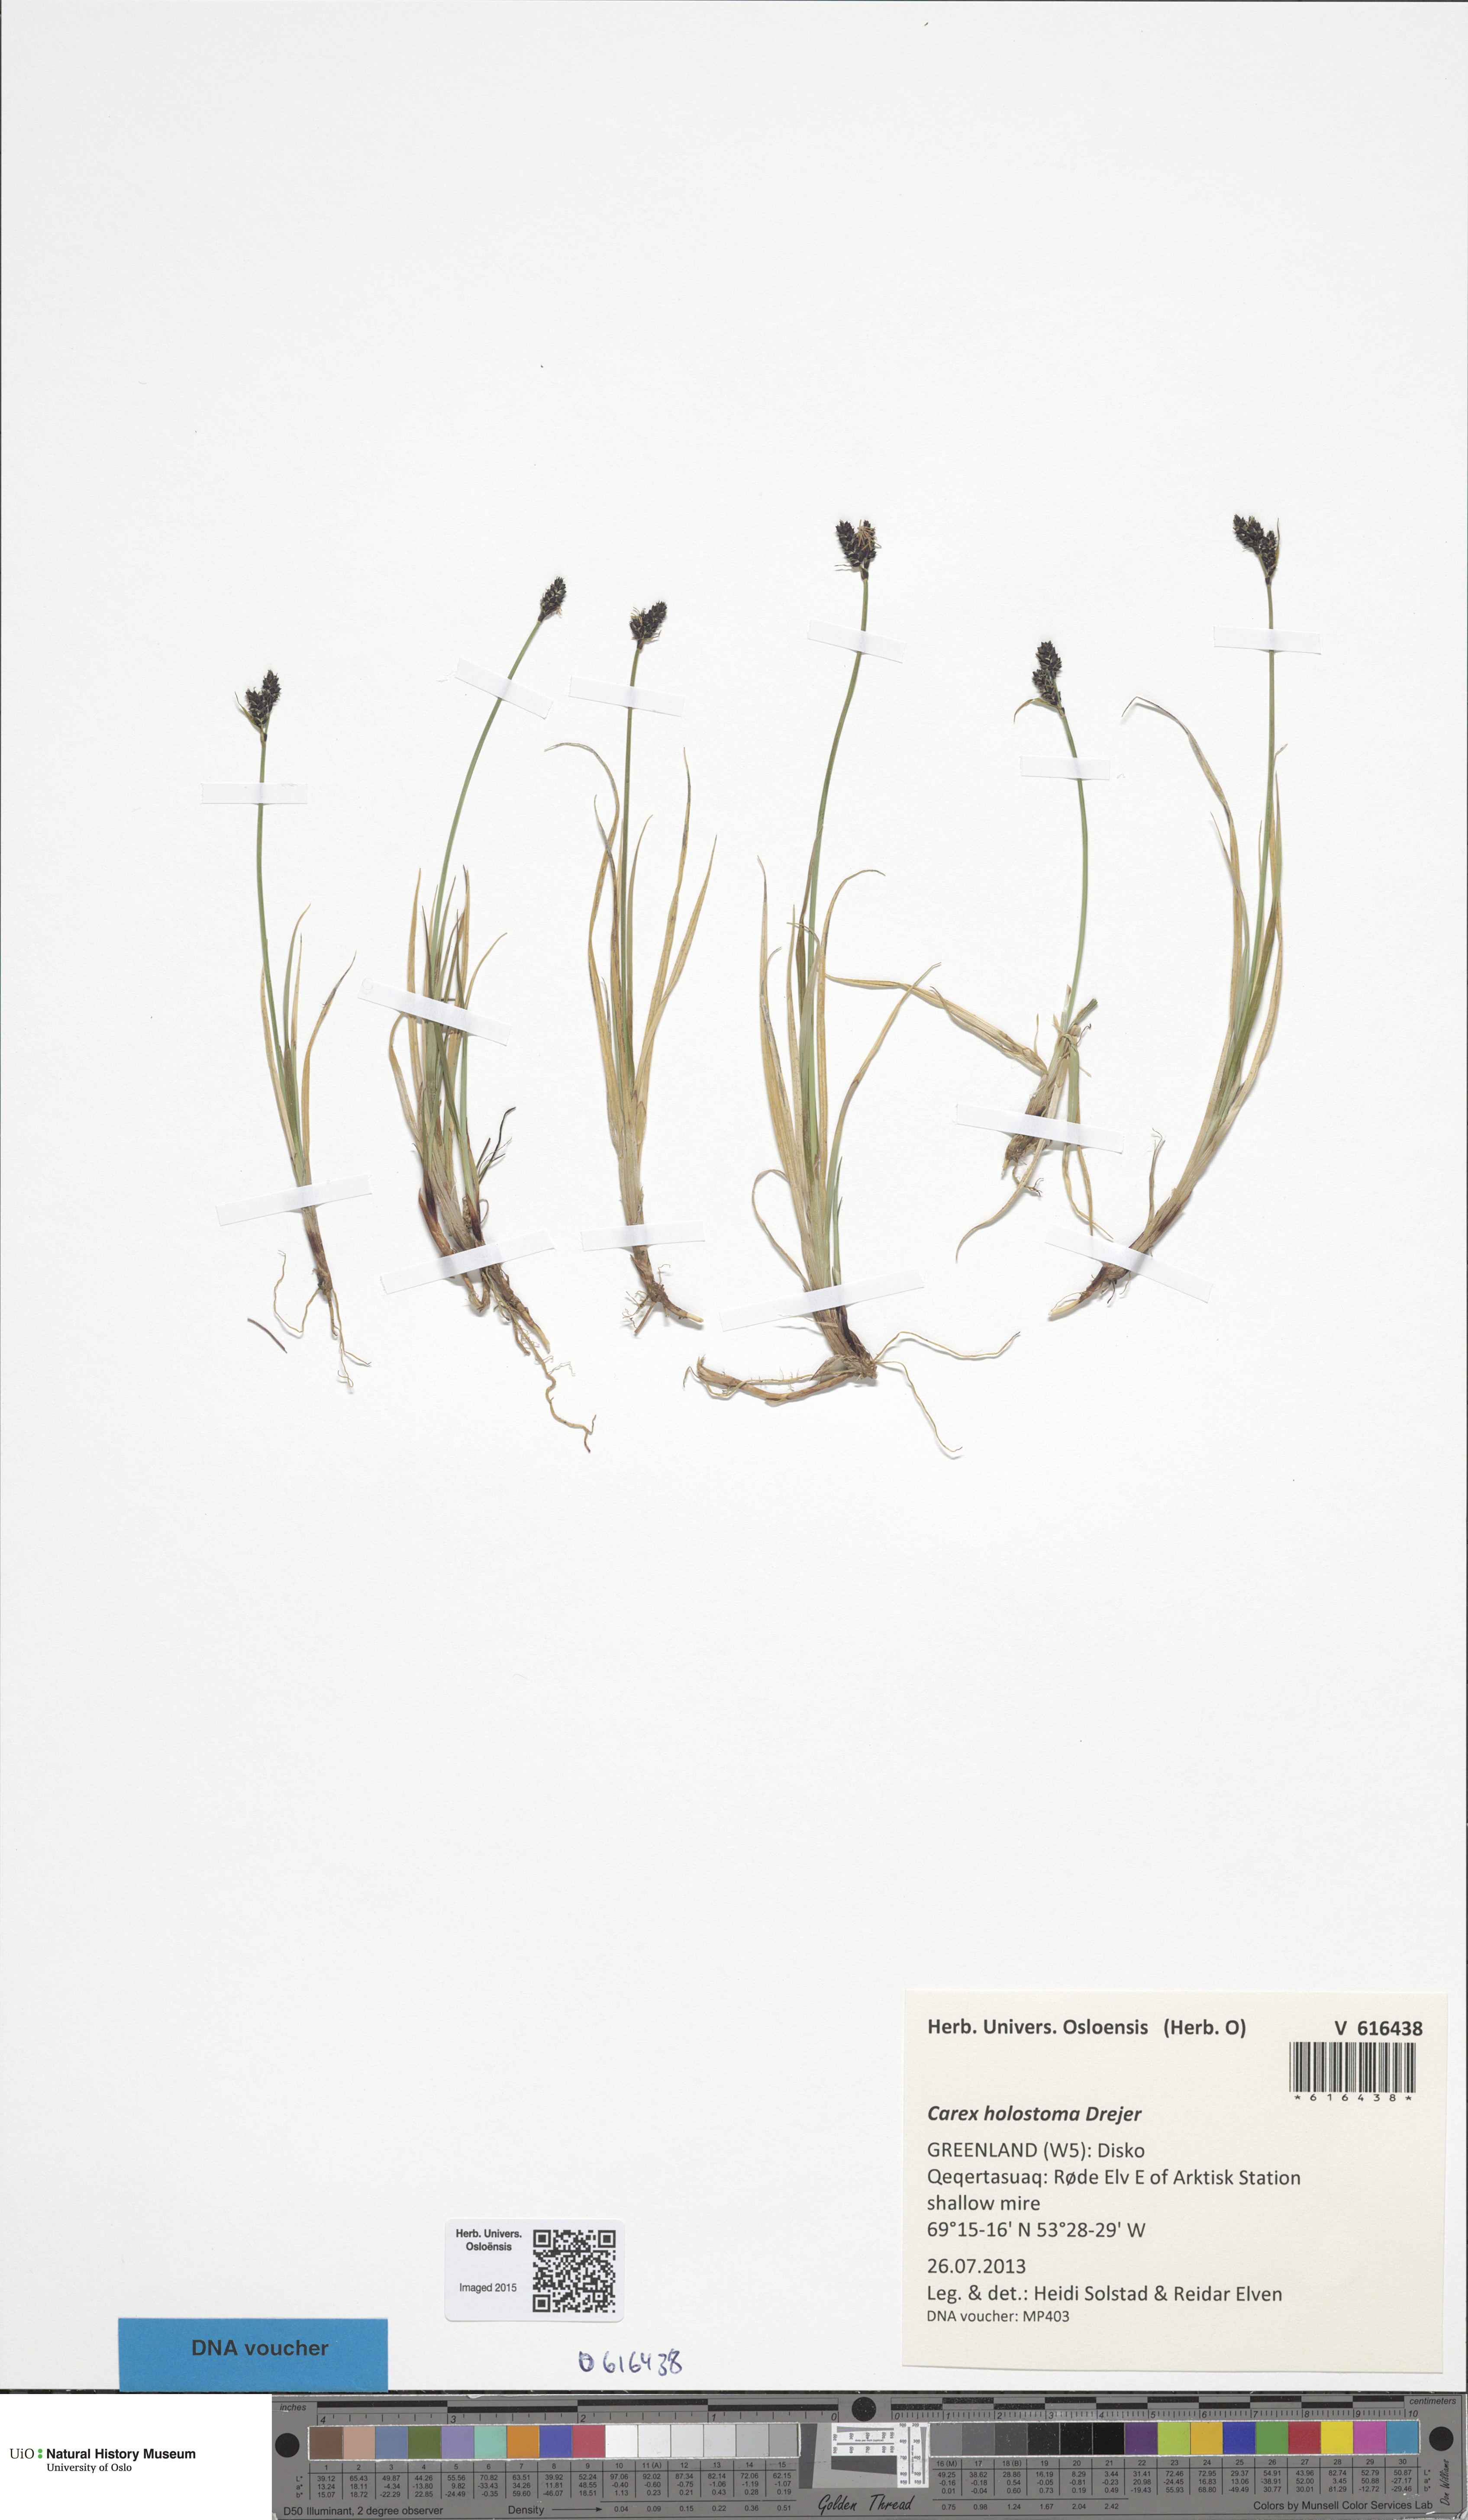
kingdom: Plantae
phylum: Tracheophyta
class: Liliopsida
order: Poales
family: Cyperaceae
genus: Carex
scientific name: Carex holostoma
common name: Arctic marsh sedge
